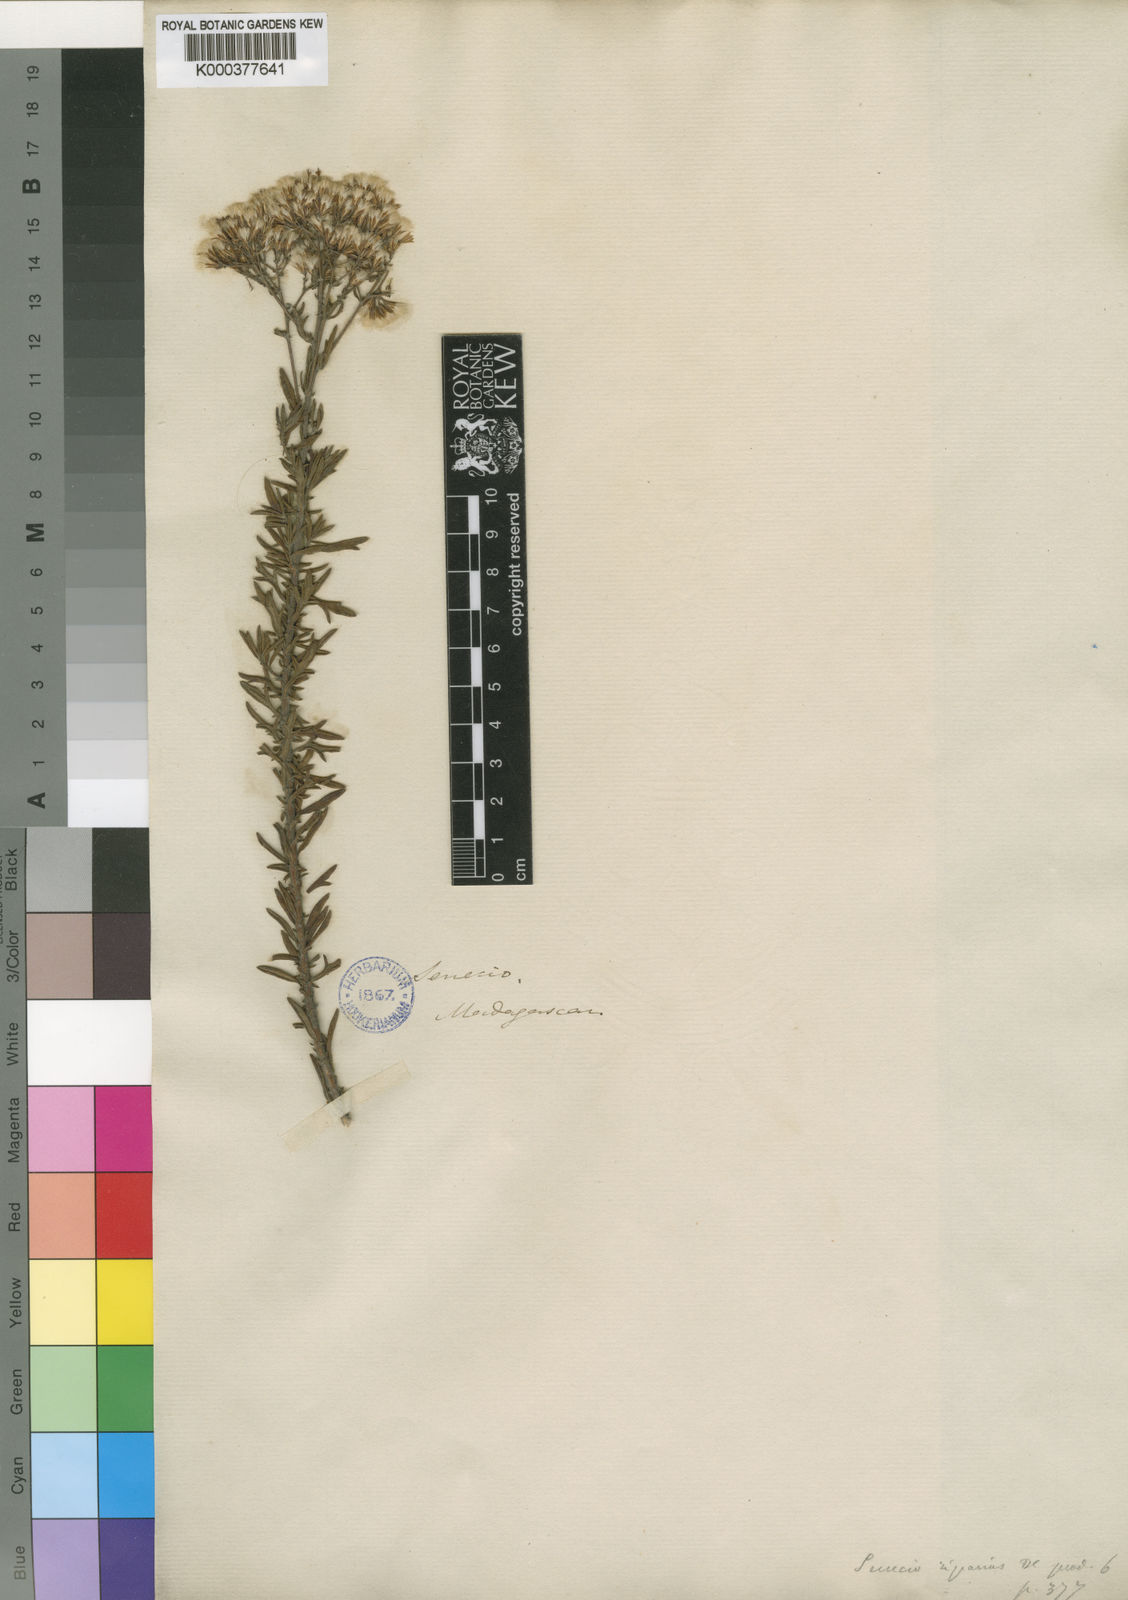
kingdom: Plantae
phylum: Tracheophyta
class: Magnoliopsida
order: Asterales
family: Asteraceae
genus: Hubertia
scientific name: Hubertia riparia
